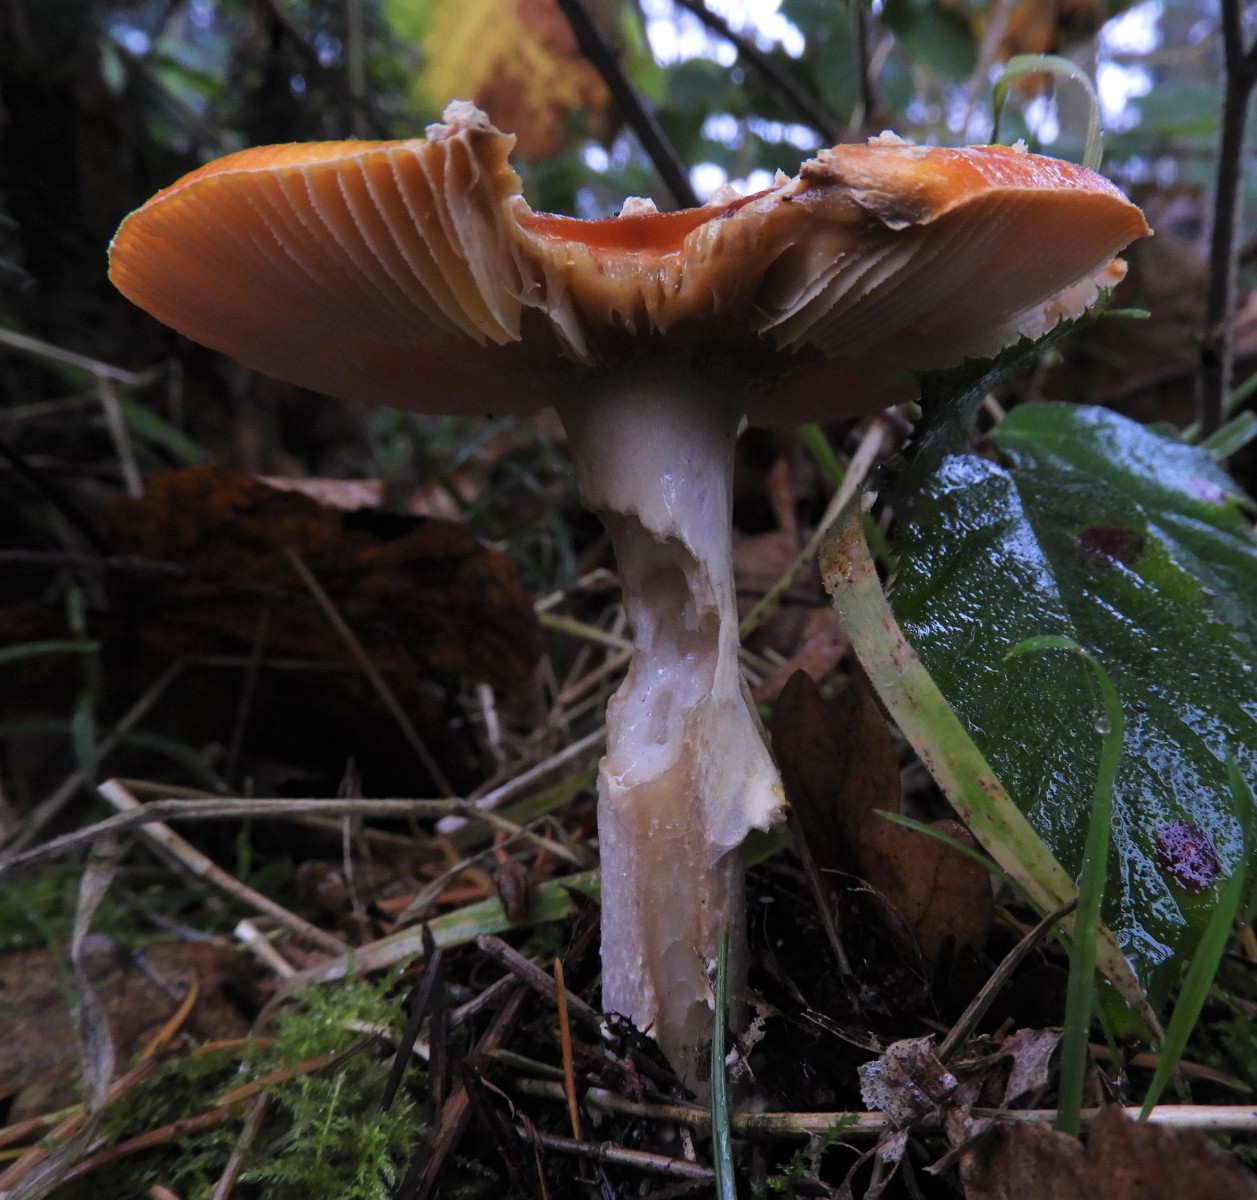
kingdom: Fungi
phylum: Basidiomycota
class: Agaricomycetes
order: Agaricales
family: Amanitaceae
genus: Amanita
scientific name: Amanita muscaria
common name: rød fluesvamp
